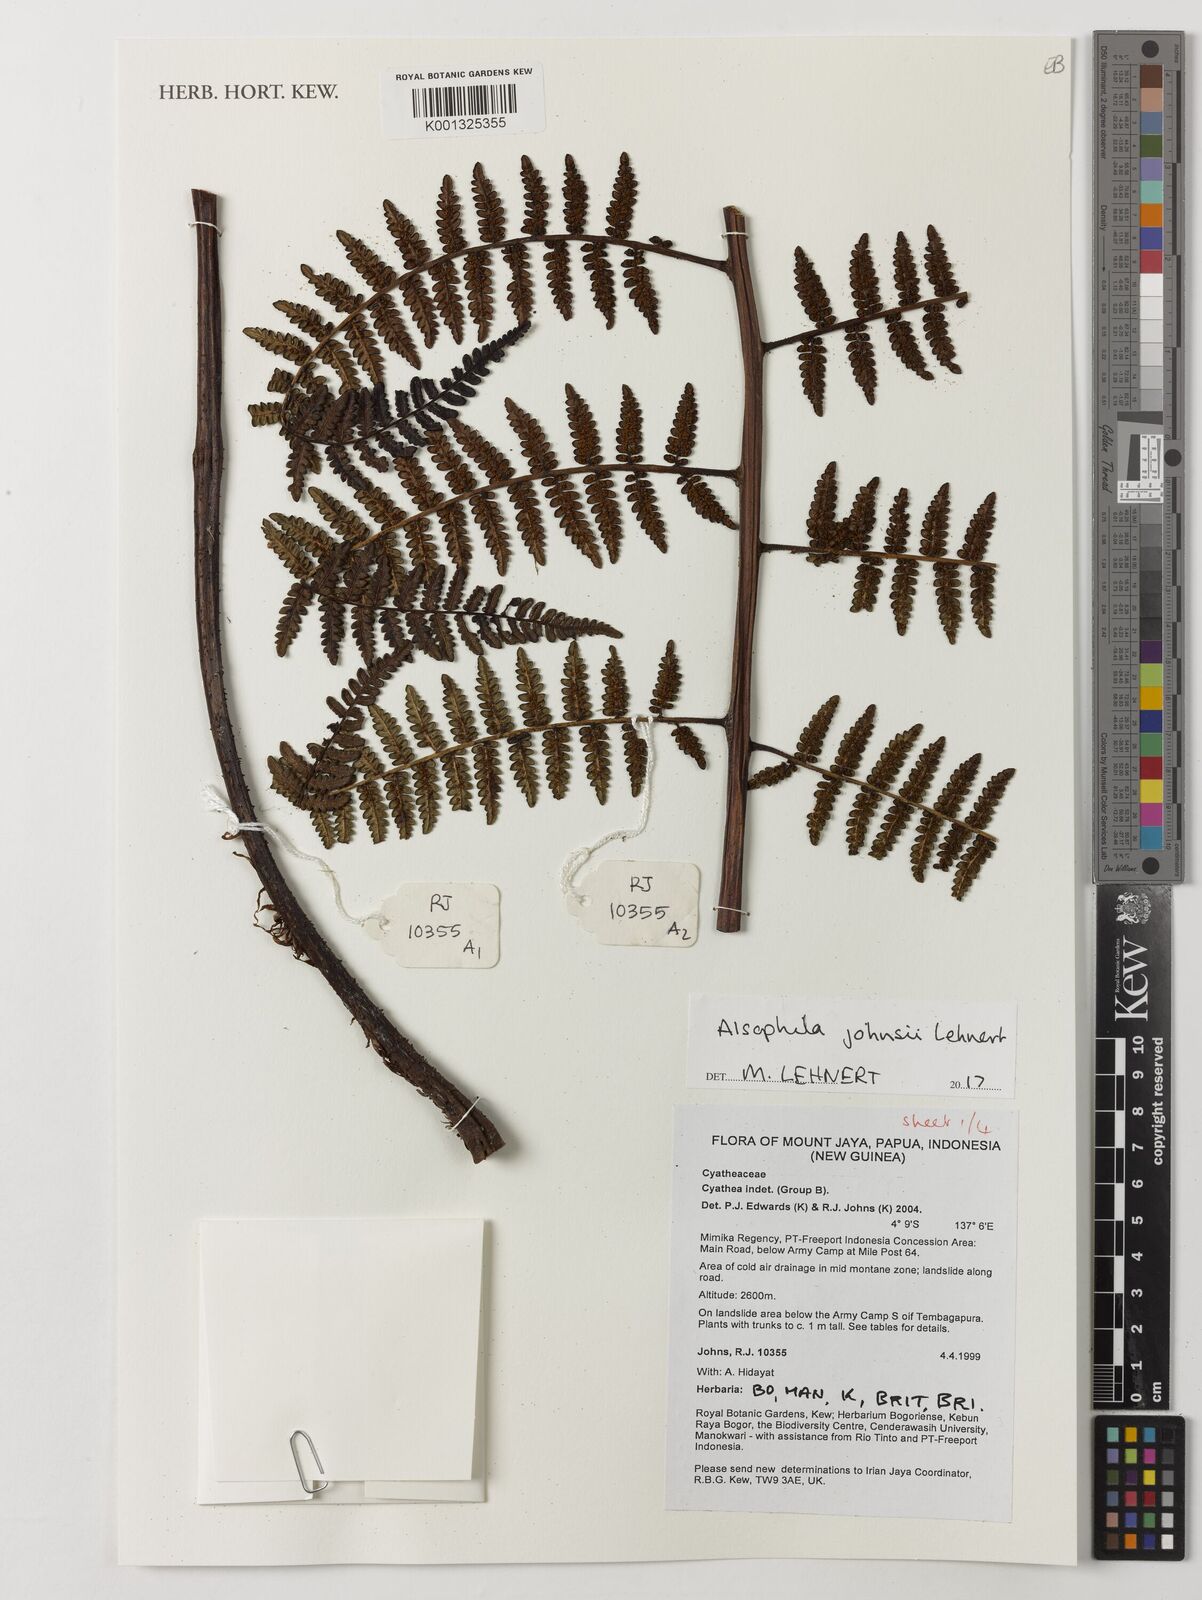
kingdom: Plantae
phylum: Tracheophyta
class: Polypodiopsida
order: Cyatheales
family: Cyatheaceae
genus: Alsophila
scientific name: Alsophila johnsii
